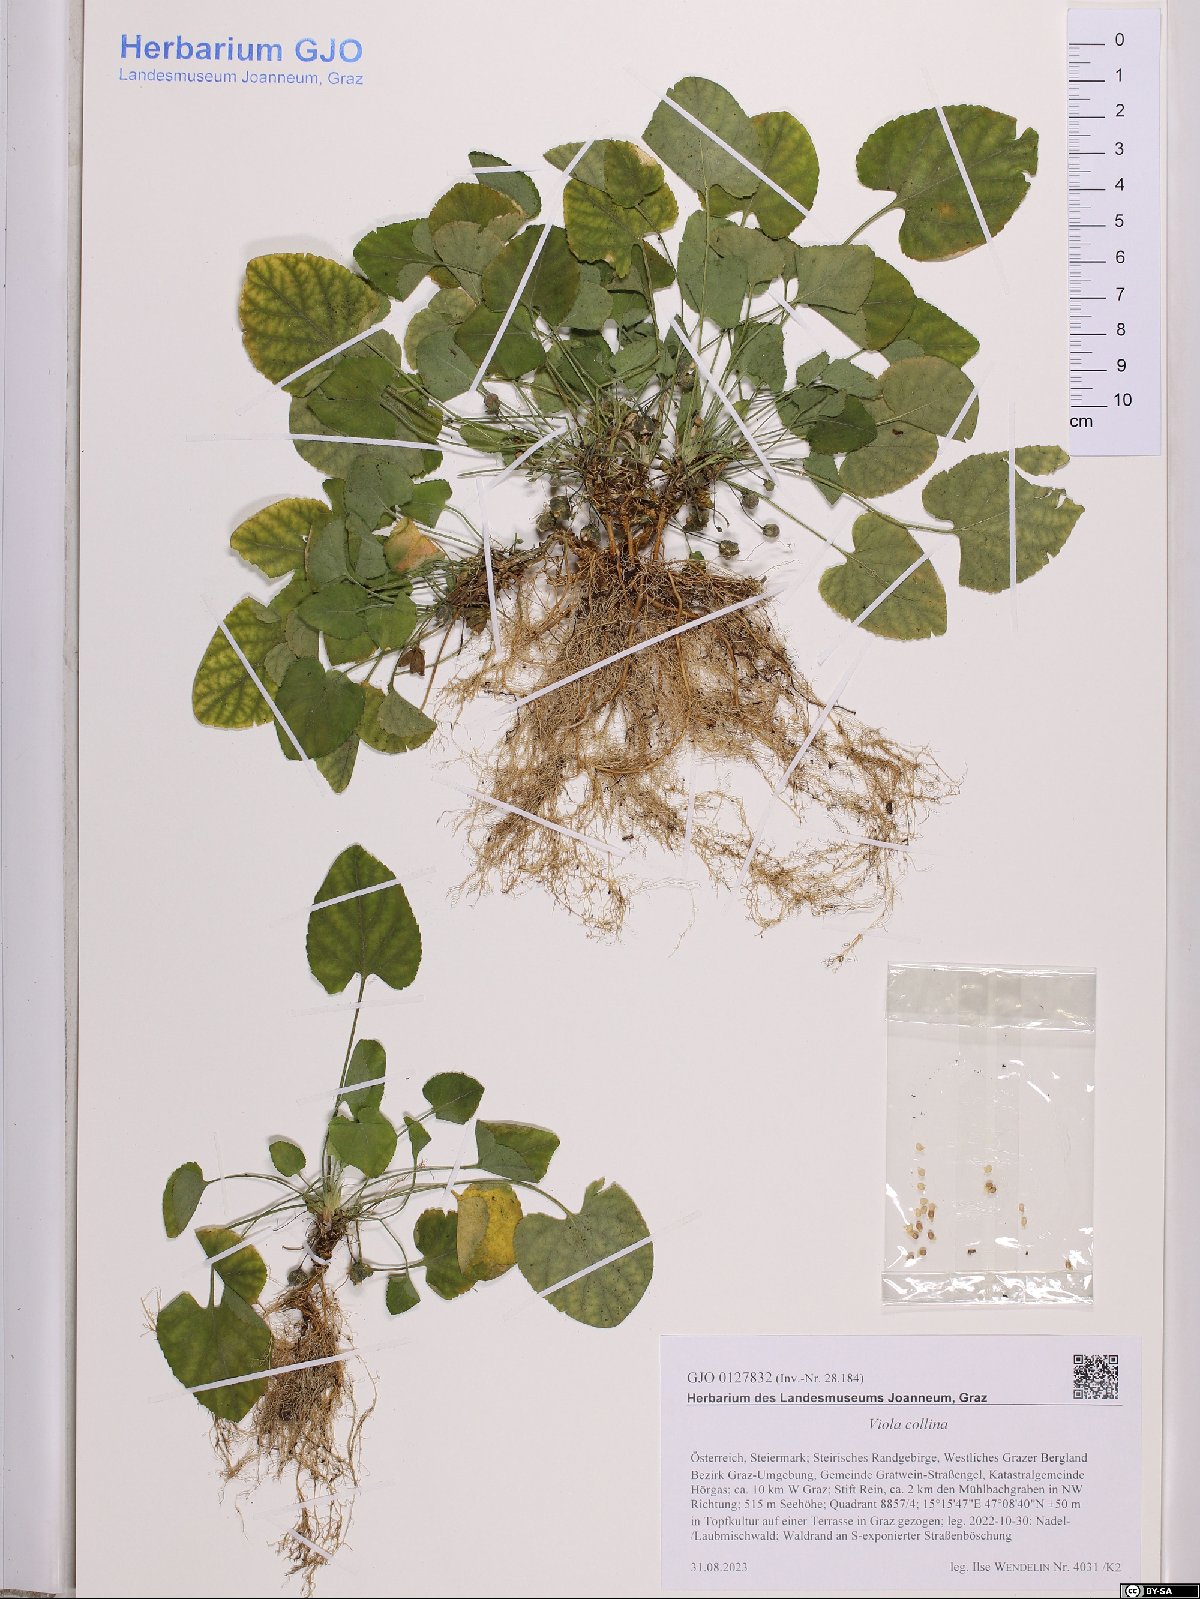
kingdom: Plantae
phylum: Tracheophyta
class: Magnoliopsida
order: Malpighiales
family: Violaceae
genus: Viola
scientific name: Viola collina
